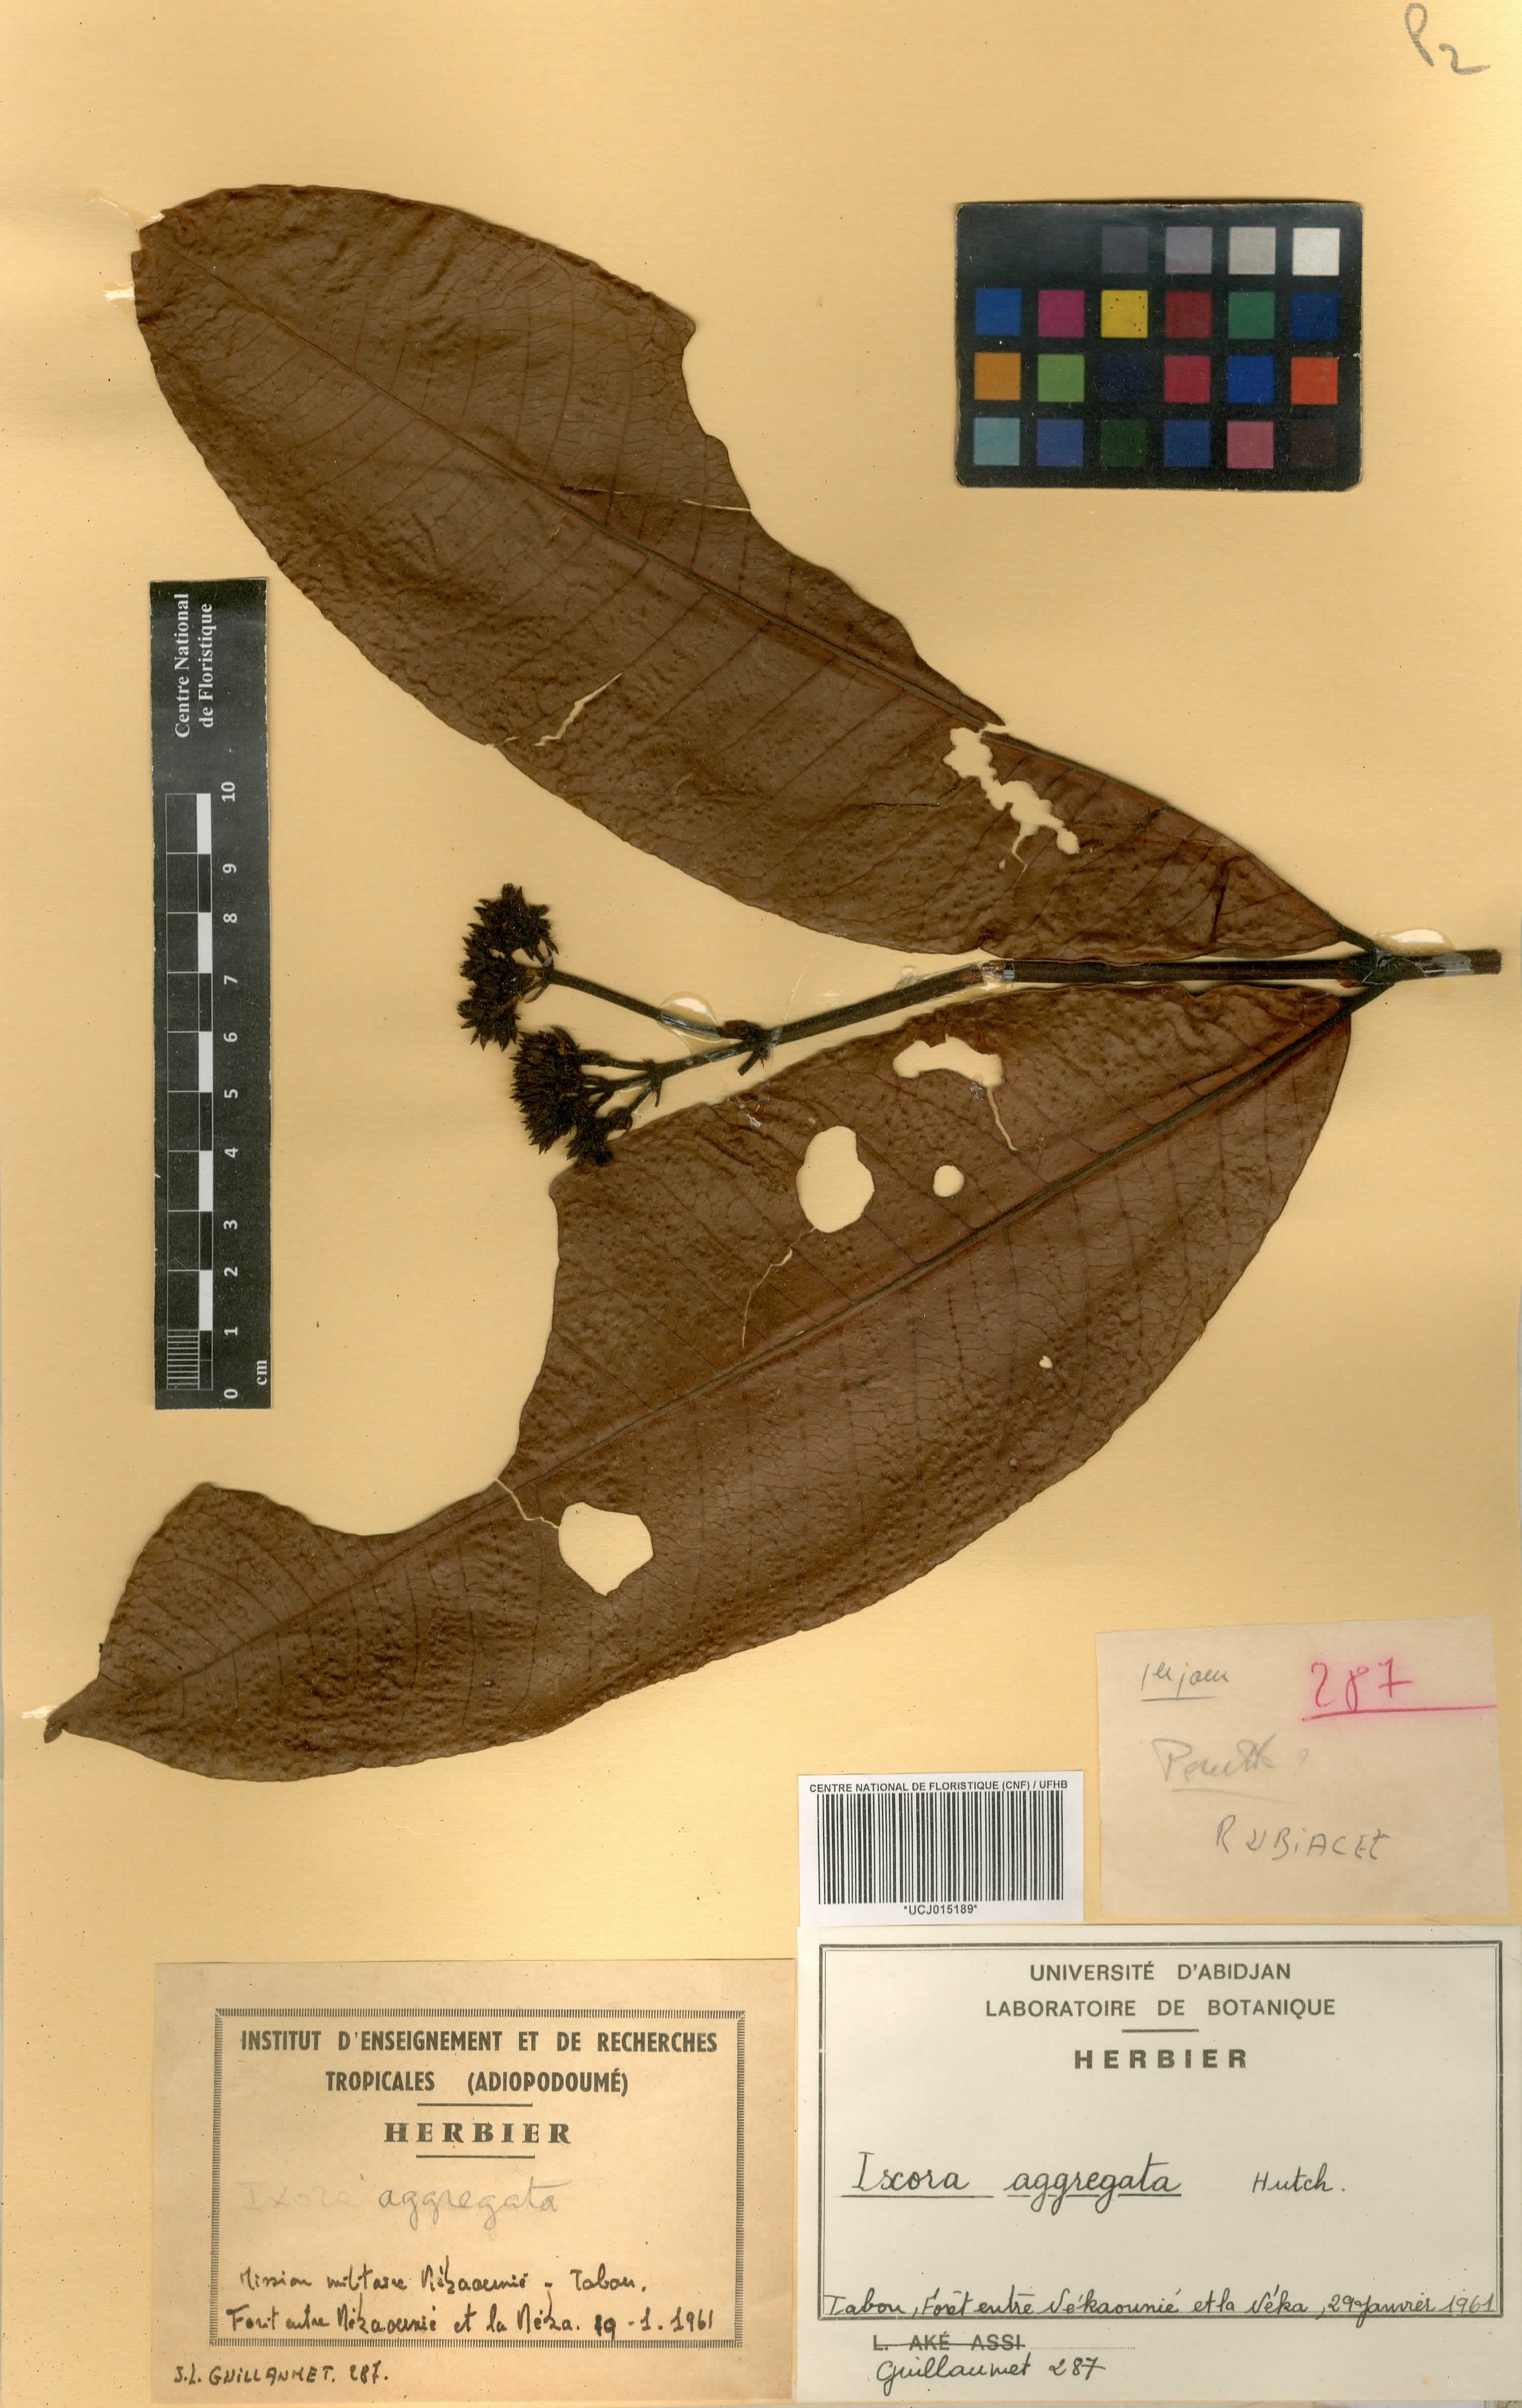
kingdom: Plantae
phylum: Tracheophyta
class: Magnoliopsida
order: Gentianales
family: Rubiaceae
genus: Ixora
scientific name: Ixora aggregata
